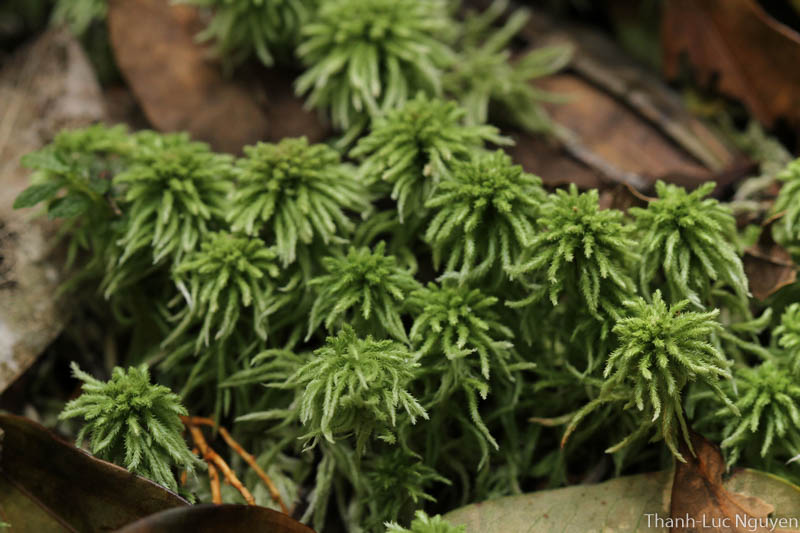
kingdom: Plantae
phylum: Bryophyta
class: Sphagnopsida
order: Sphagnales
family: Sphagnaceae
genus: Sphagnum
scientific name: Sphagnum
